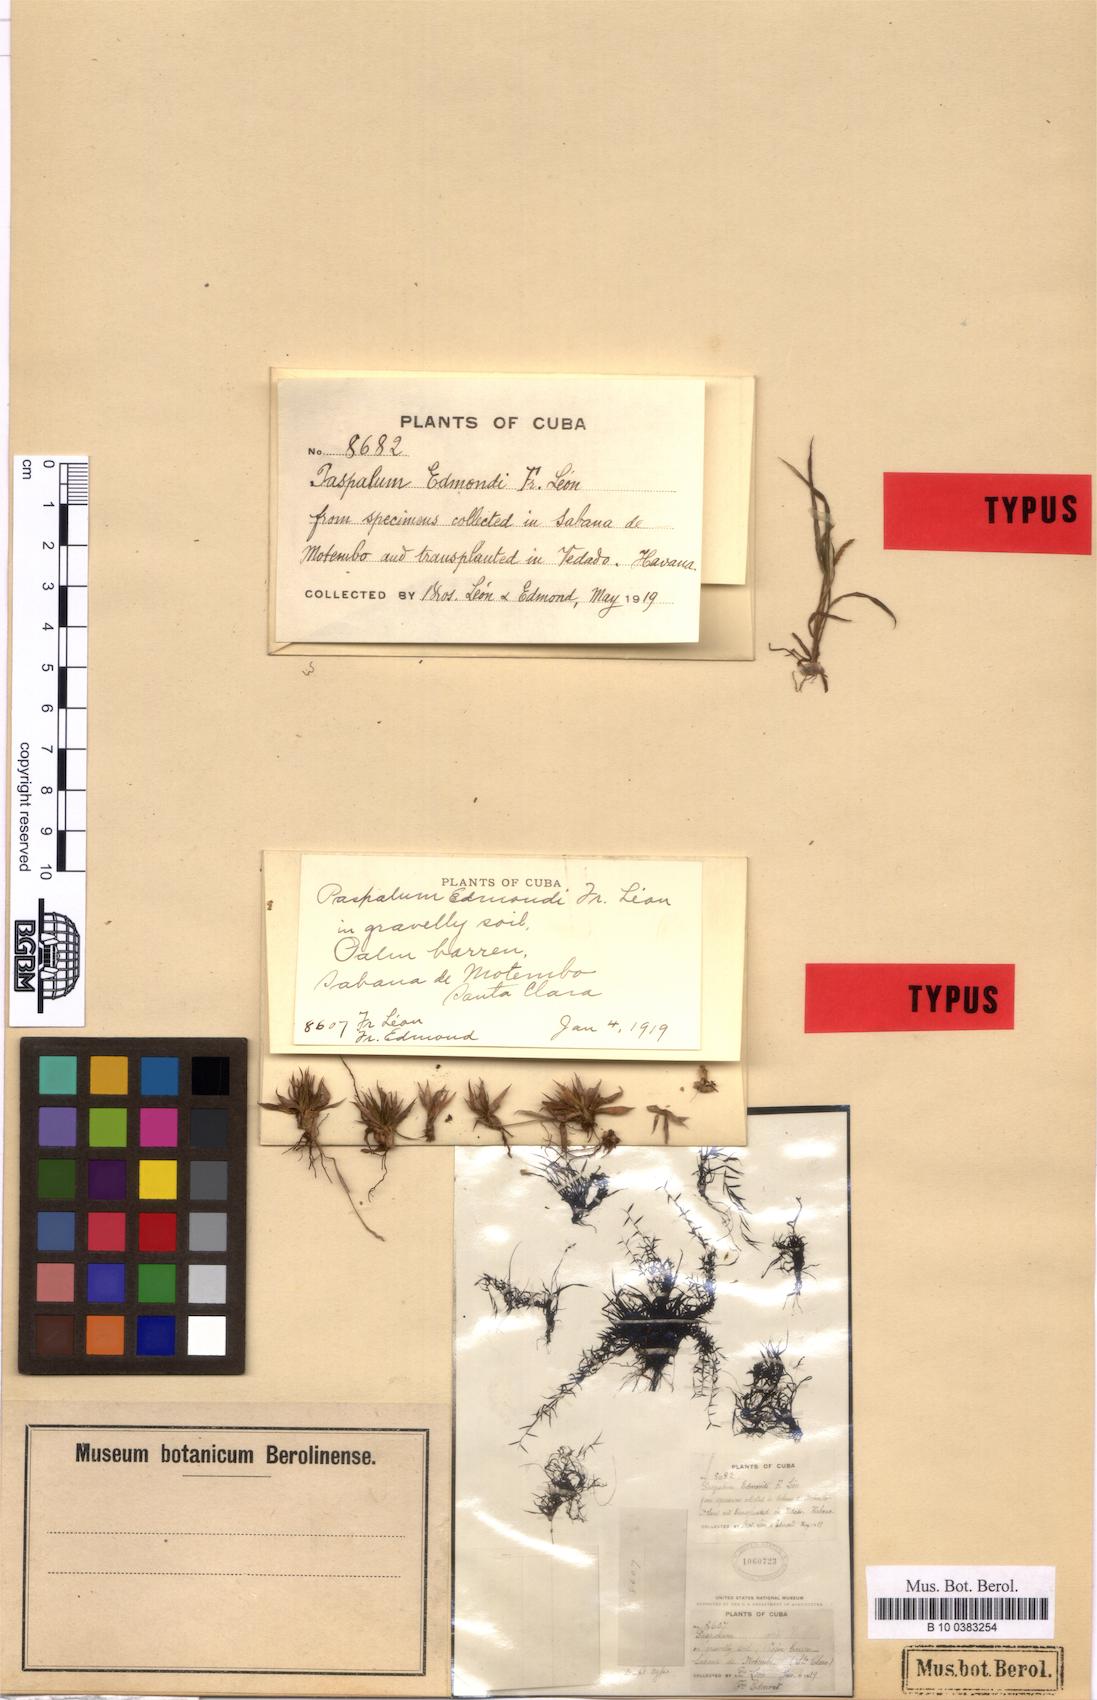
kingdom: Plantae
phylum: Tracheophyta
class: Liliopsida
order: Poales
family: Poaceae
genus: Paspalum
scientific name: Paspalum edmondii
